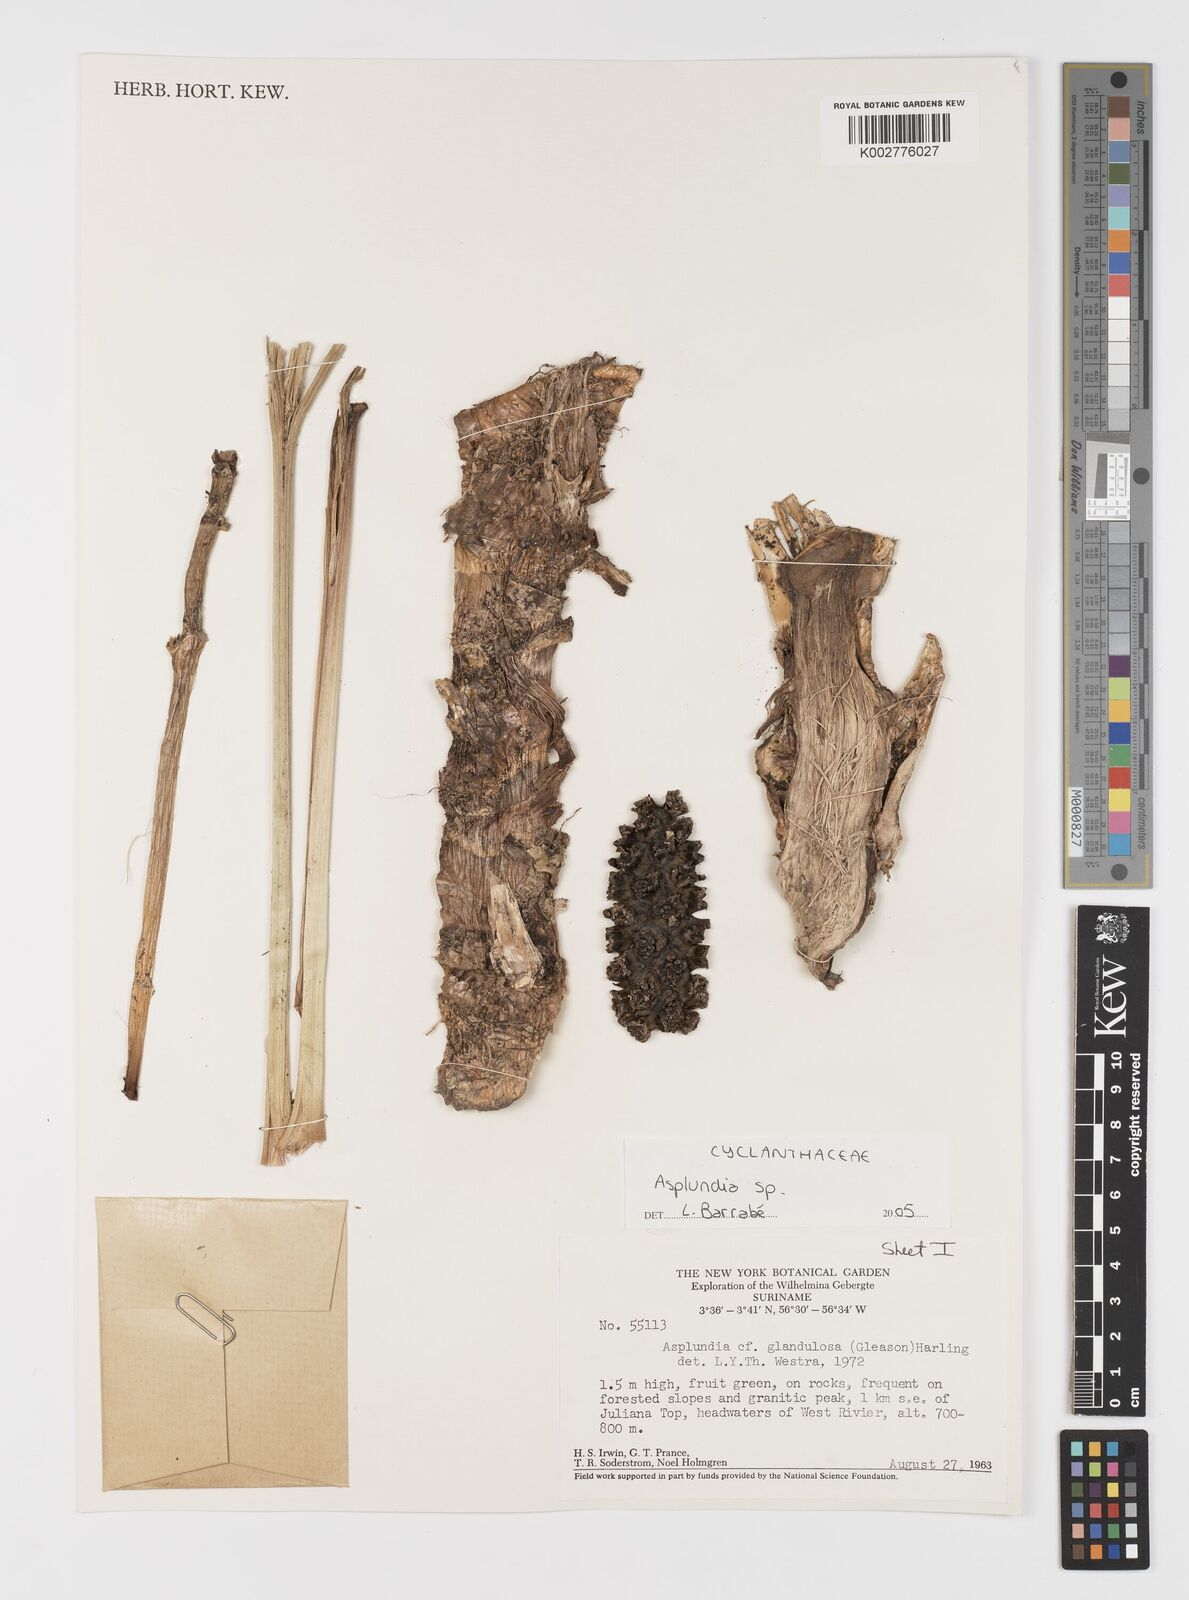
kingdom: Plantae
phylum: Tracheophyta
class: Liliopsida
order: Pandanales
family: Cyclanthaceae
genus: Asplundia
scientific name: Asplundia
